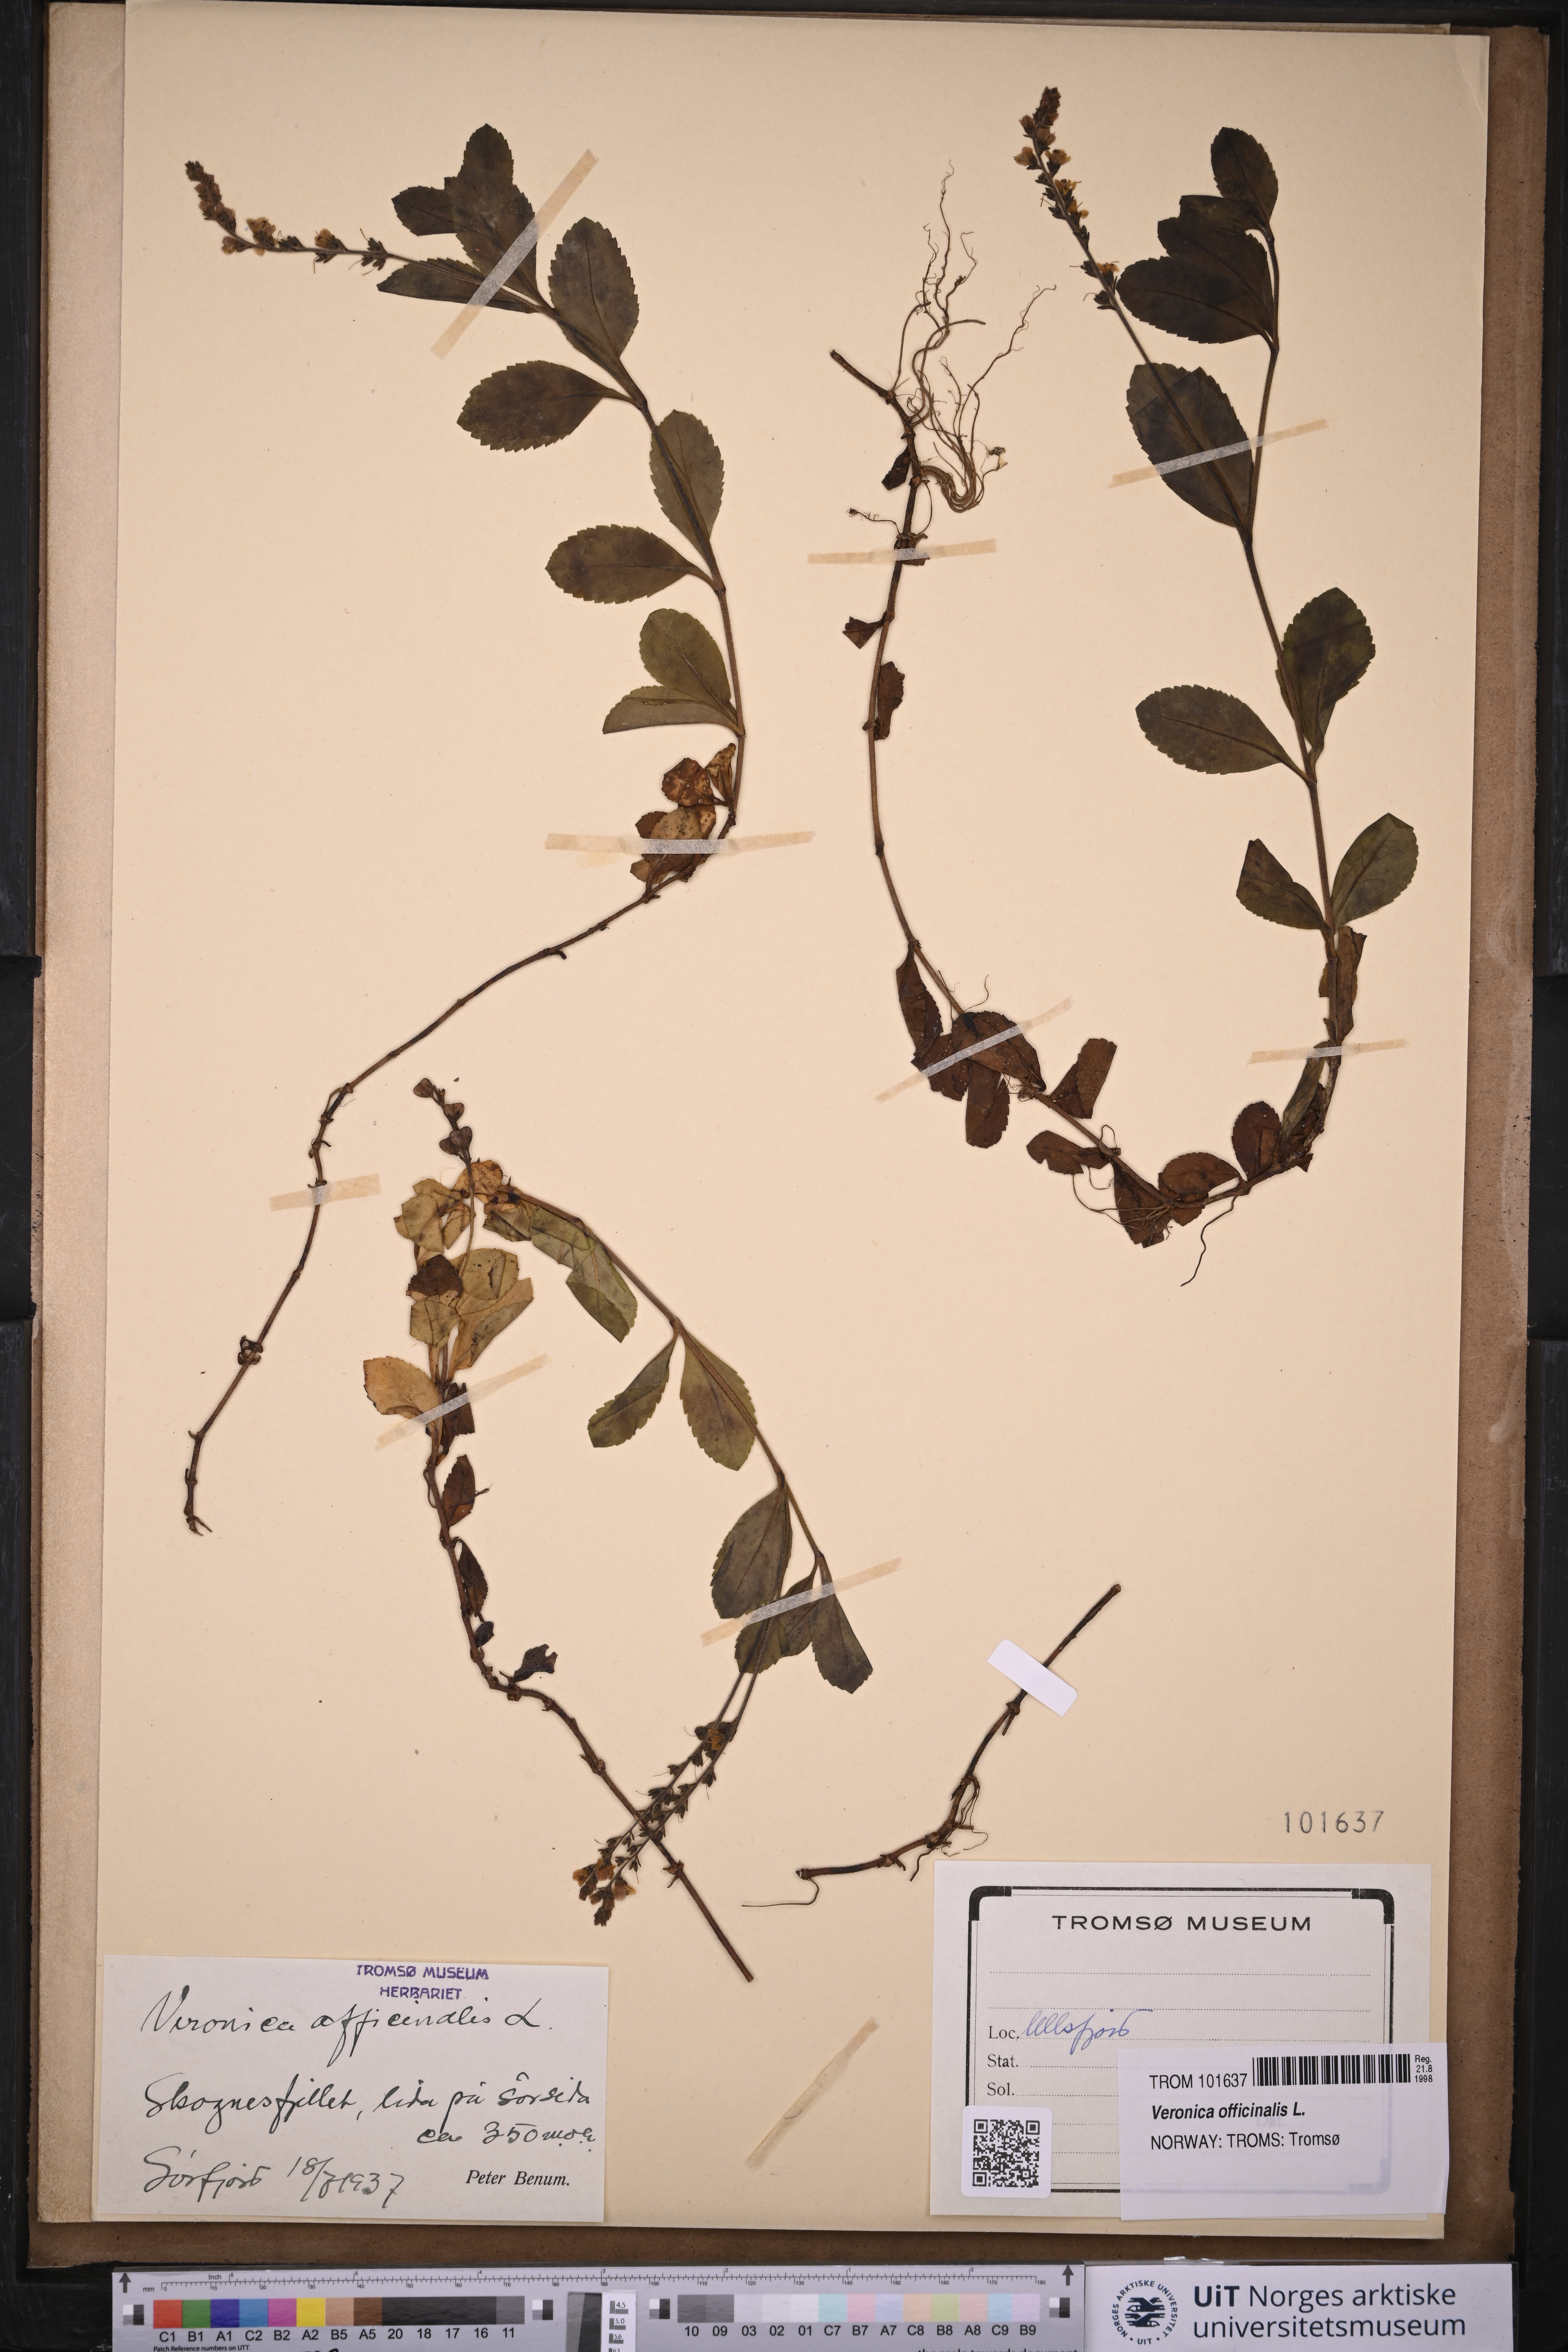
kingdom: Plantae
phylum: Tracheophyta
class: Magnoliopsida
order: Lamiales
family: Plantaginaceae
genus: Veronica
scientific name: Veronica officinalis
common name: Common speedwell
